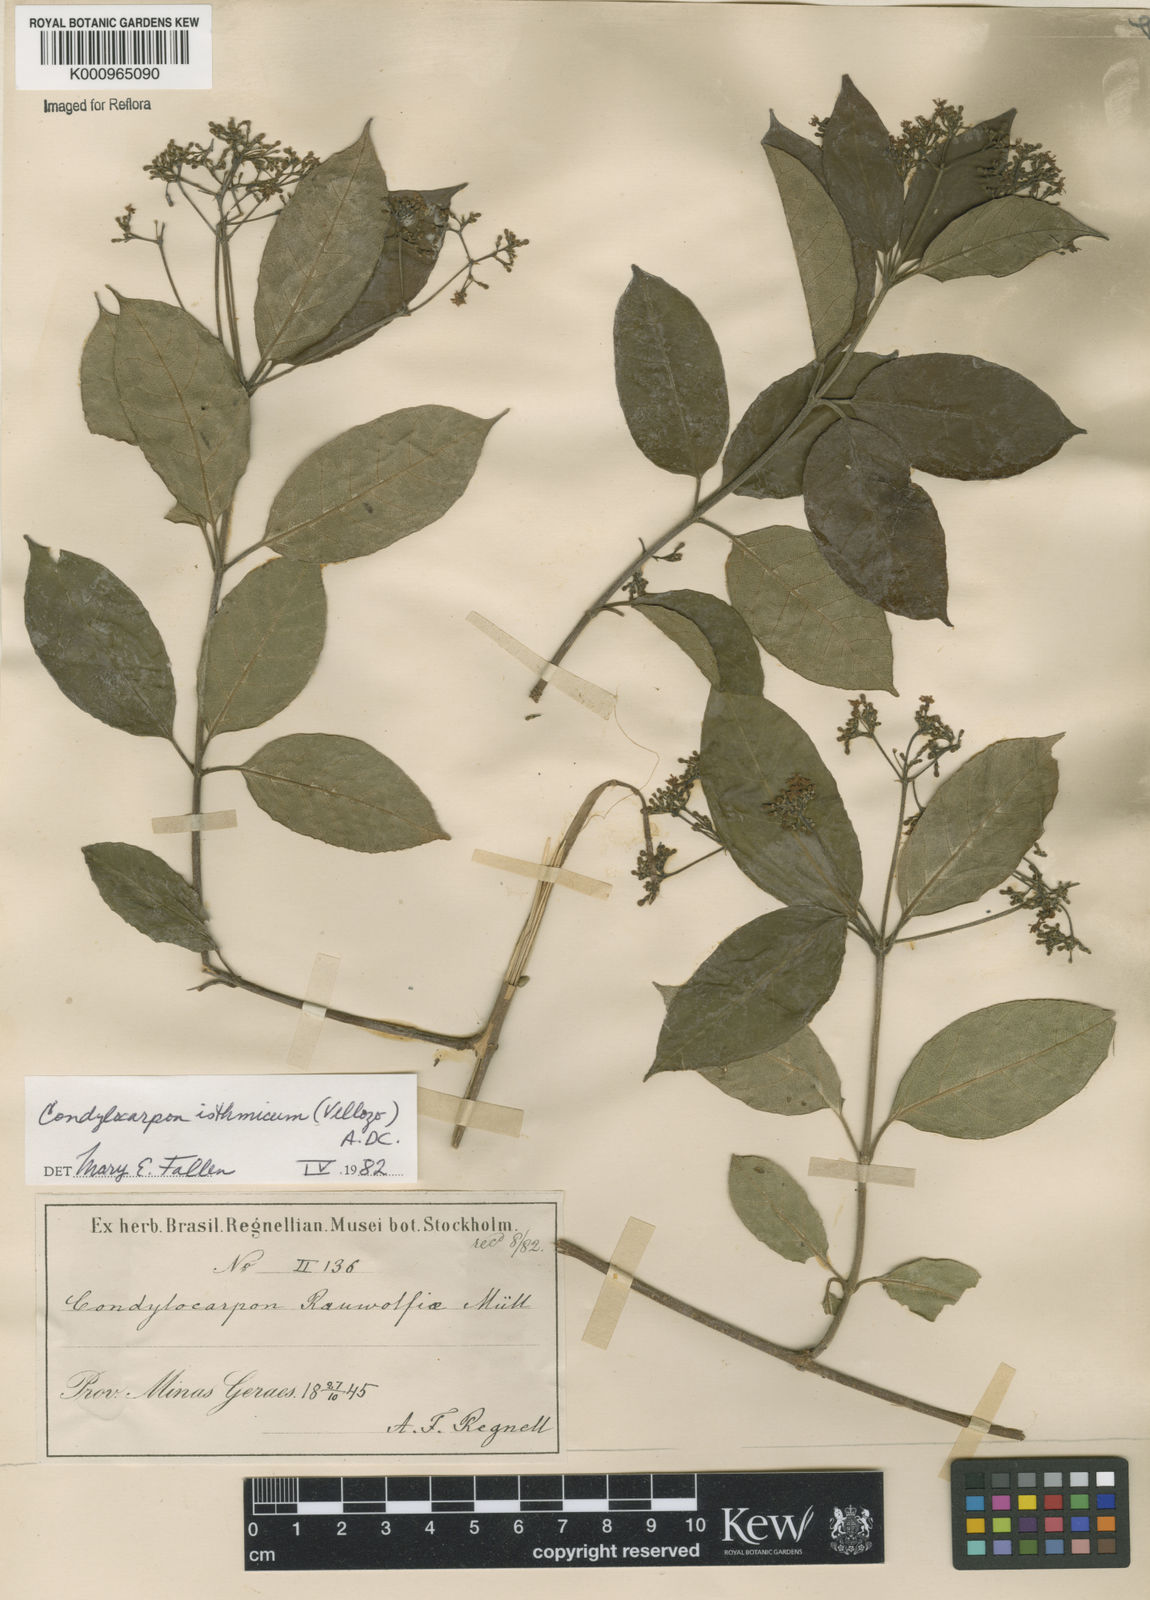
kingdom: Plantae
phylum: Tracheophyta
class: Magnoliopsida
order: Gentianales
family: Apocynaceae
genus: Condylocarpon
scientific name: Condylocarpon isthmicum
